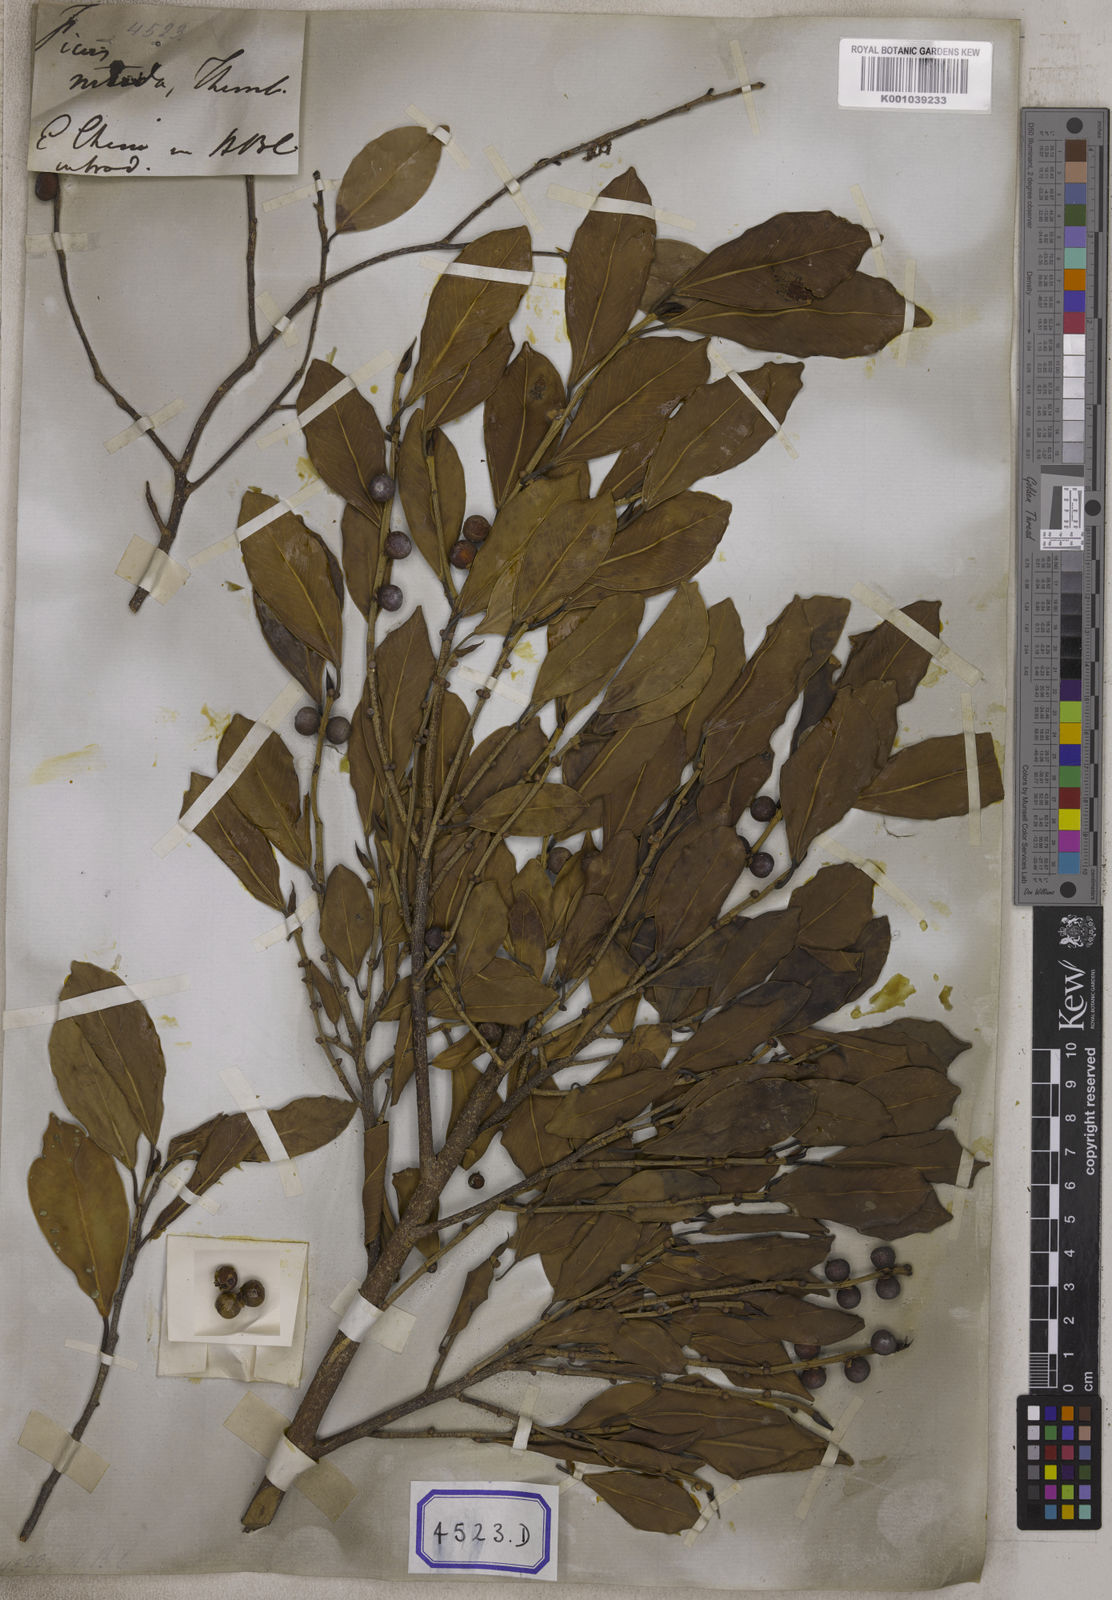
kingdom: Plantae
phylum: Tracheophyta
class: Magnoliopsida
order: Rosales
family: Moraceae
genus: Ficus
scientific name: Ficus benjamina
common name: Weeping fig
